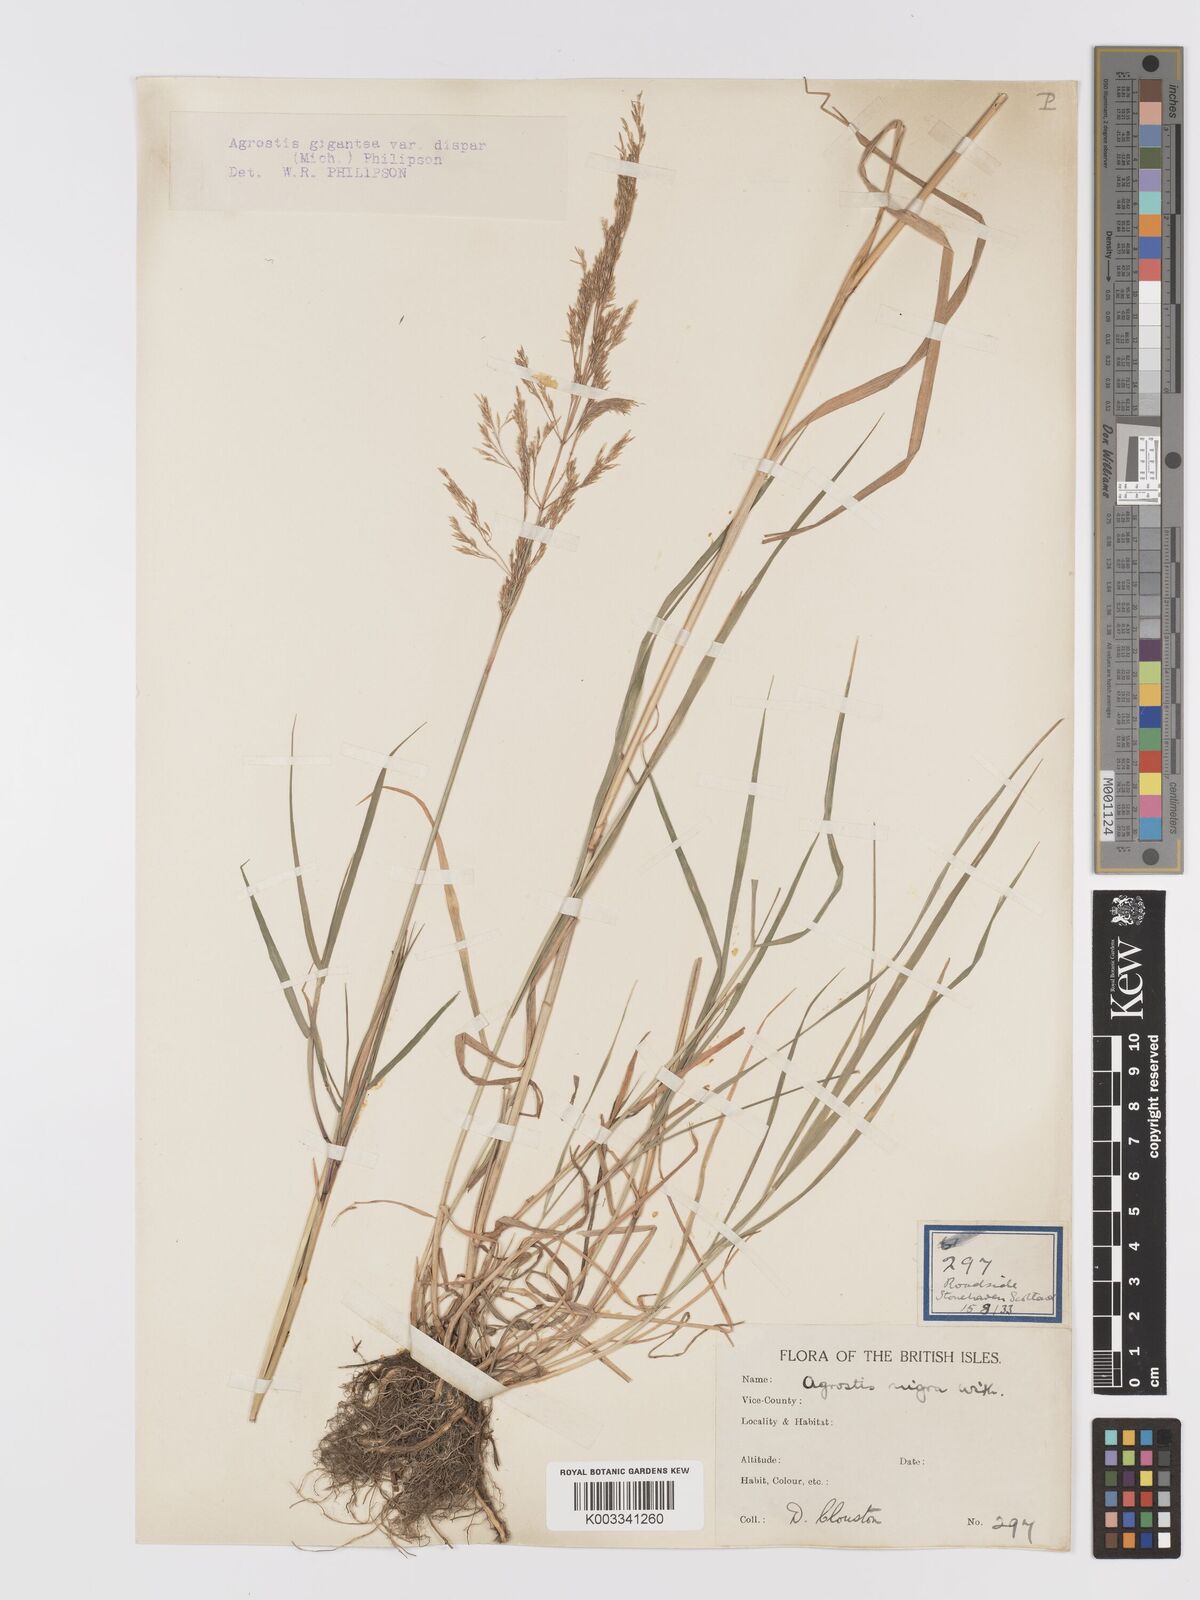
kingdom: Plantae
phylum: Tracheophyta
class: Liliopsida
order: Poales
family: Poaceae
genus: Agrostis
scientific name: Agrostis gigantea
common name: Black bent
